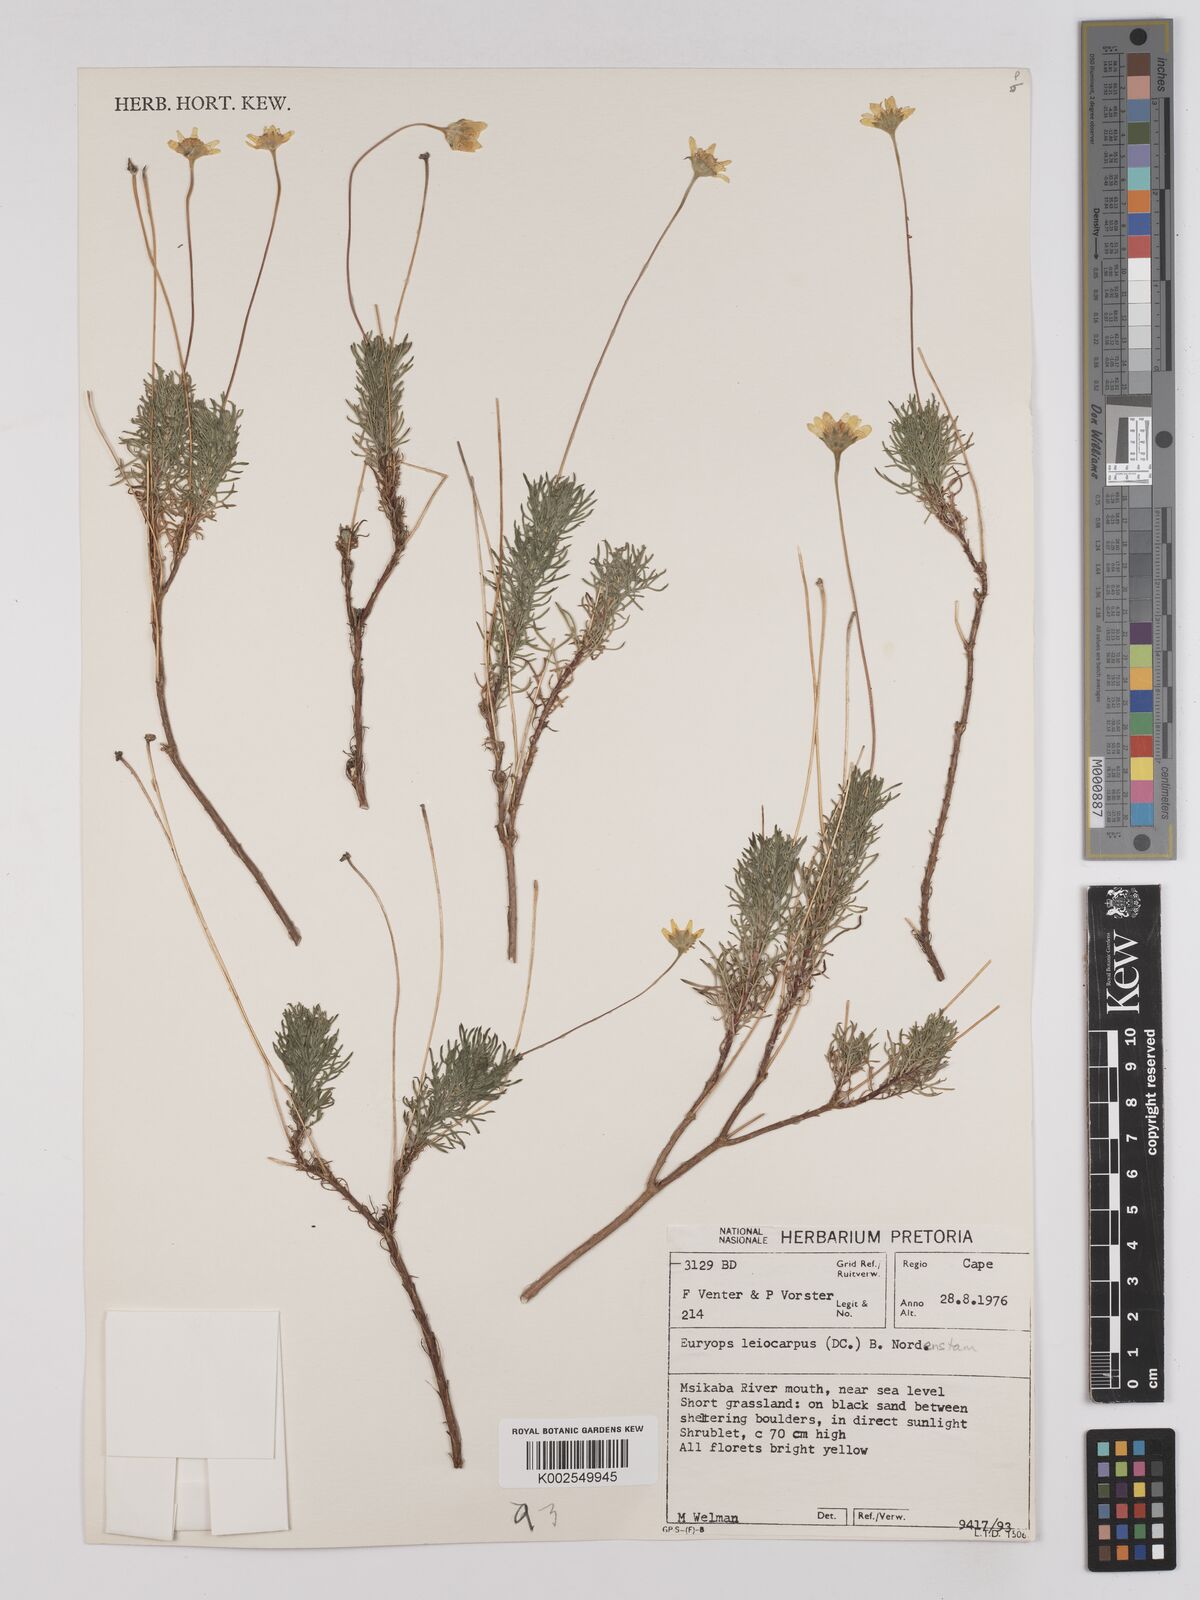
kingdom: Plantae
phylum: Tracheophyta
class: Magnoliopsida
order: Asterales
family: Asteraceae
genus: Euryops
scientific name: Euryops leiocarpus
